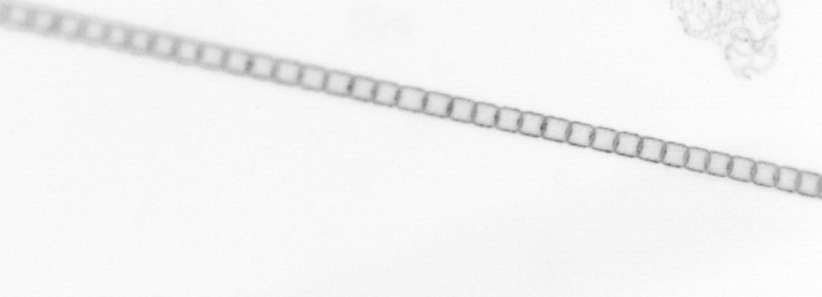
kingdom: Chromista
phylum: Ochrophyta
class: Bacillariophyceae
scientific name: Bacillariophyceae
